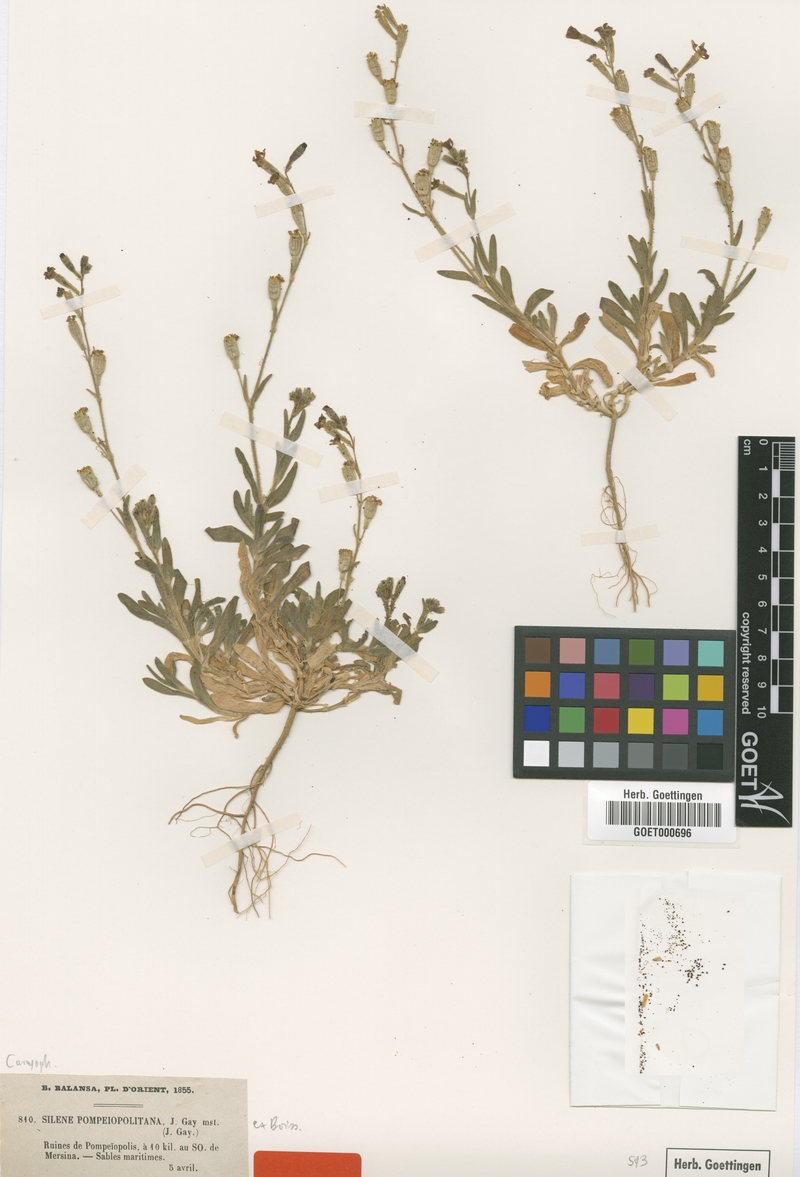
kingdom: Plantae
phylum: Tracheophyta
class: Magnoliopsida
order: Caryophyllales
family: Caryophyllaceae
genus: Silene
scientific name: Silene discolor
